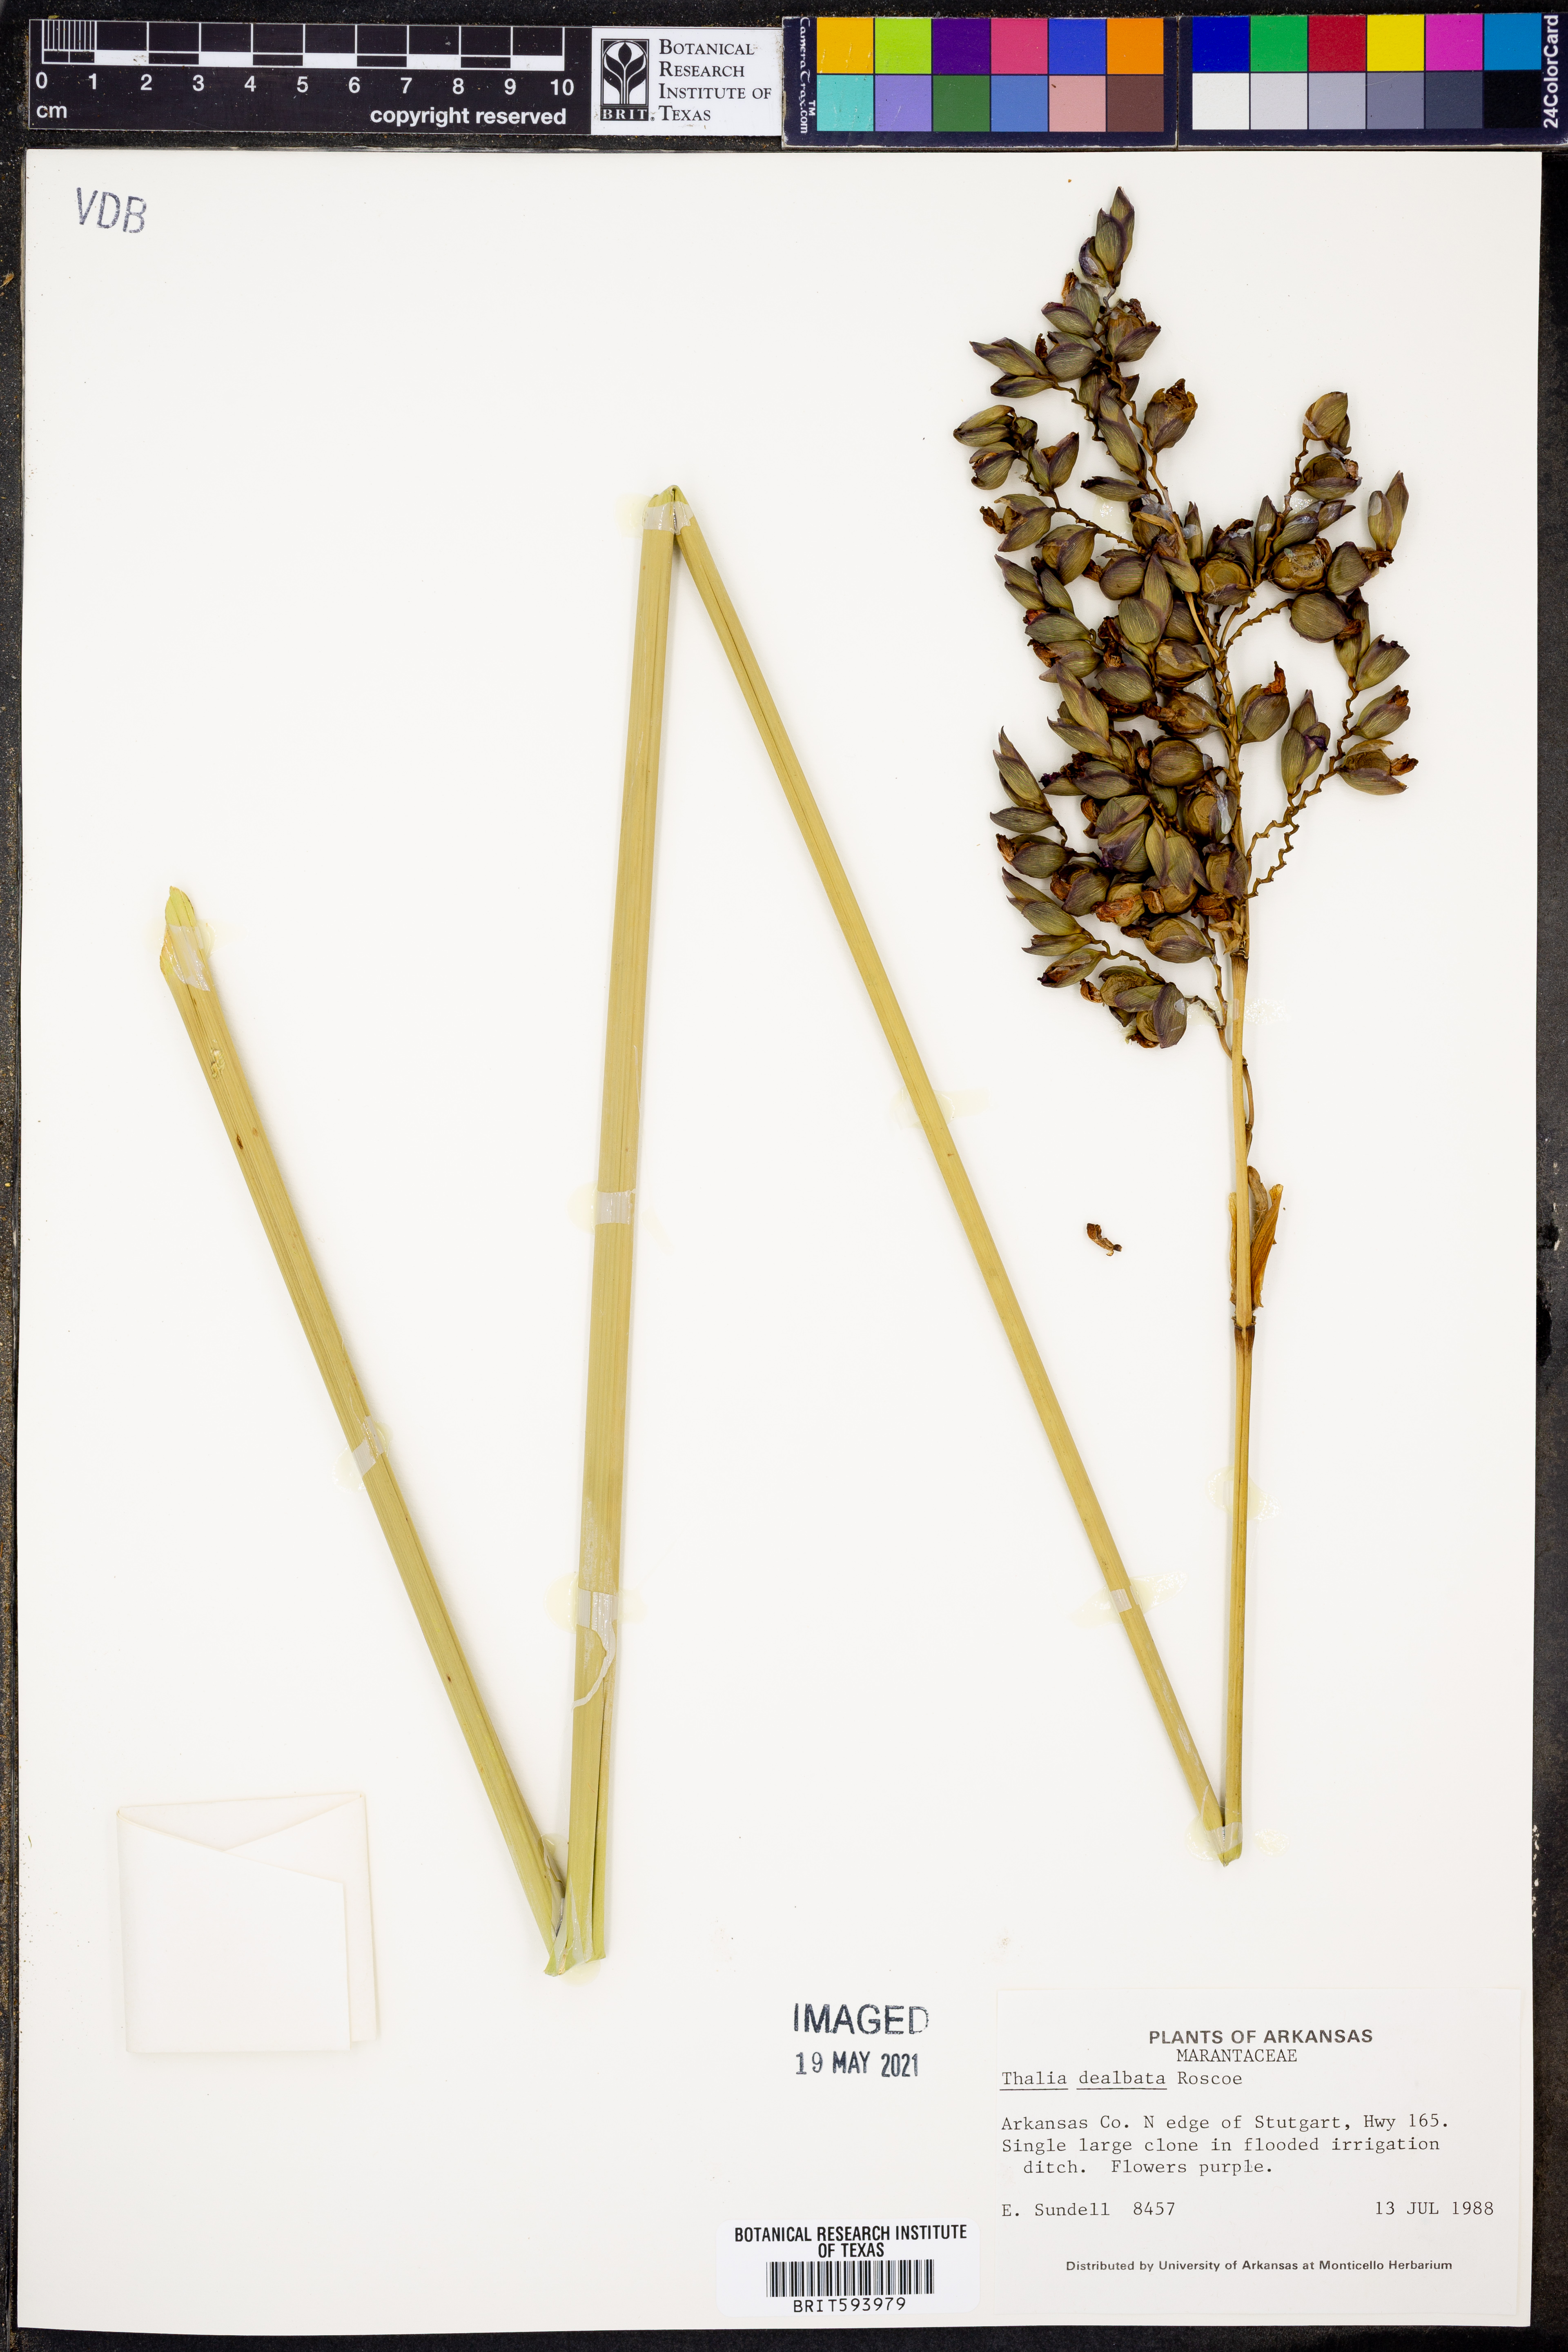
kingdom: Plantae
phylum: Tracheophyta
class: Liliopsida
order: Zingiberales
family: Marantaceae
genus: Thalia
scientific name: Thalia dealbata
